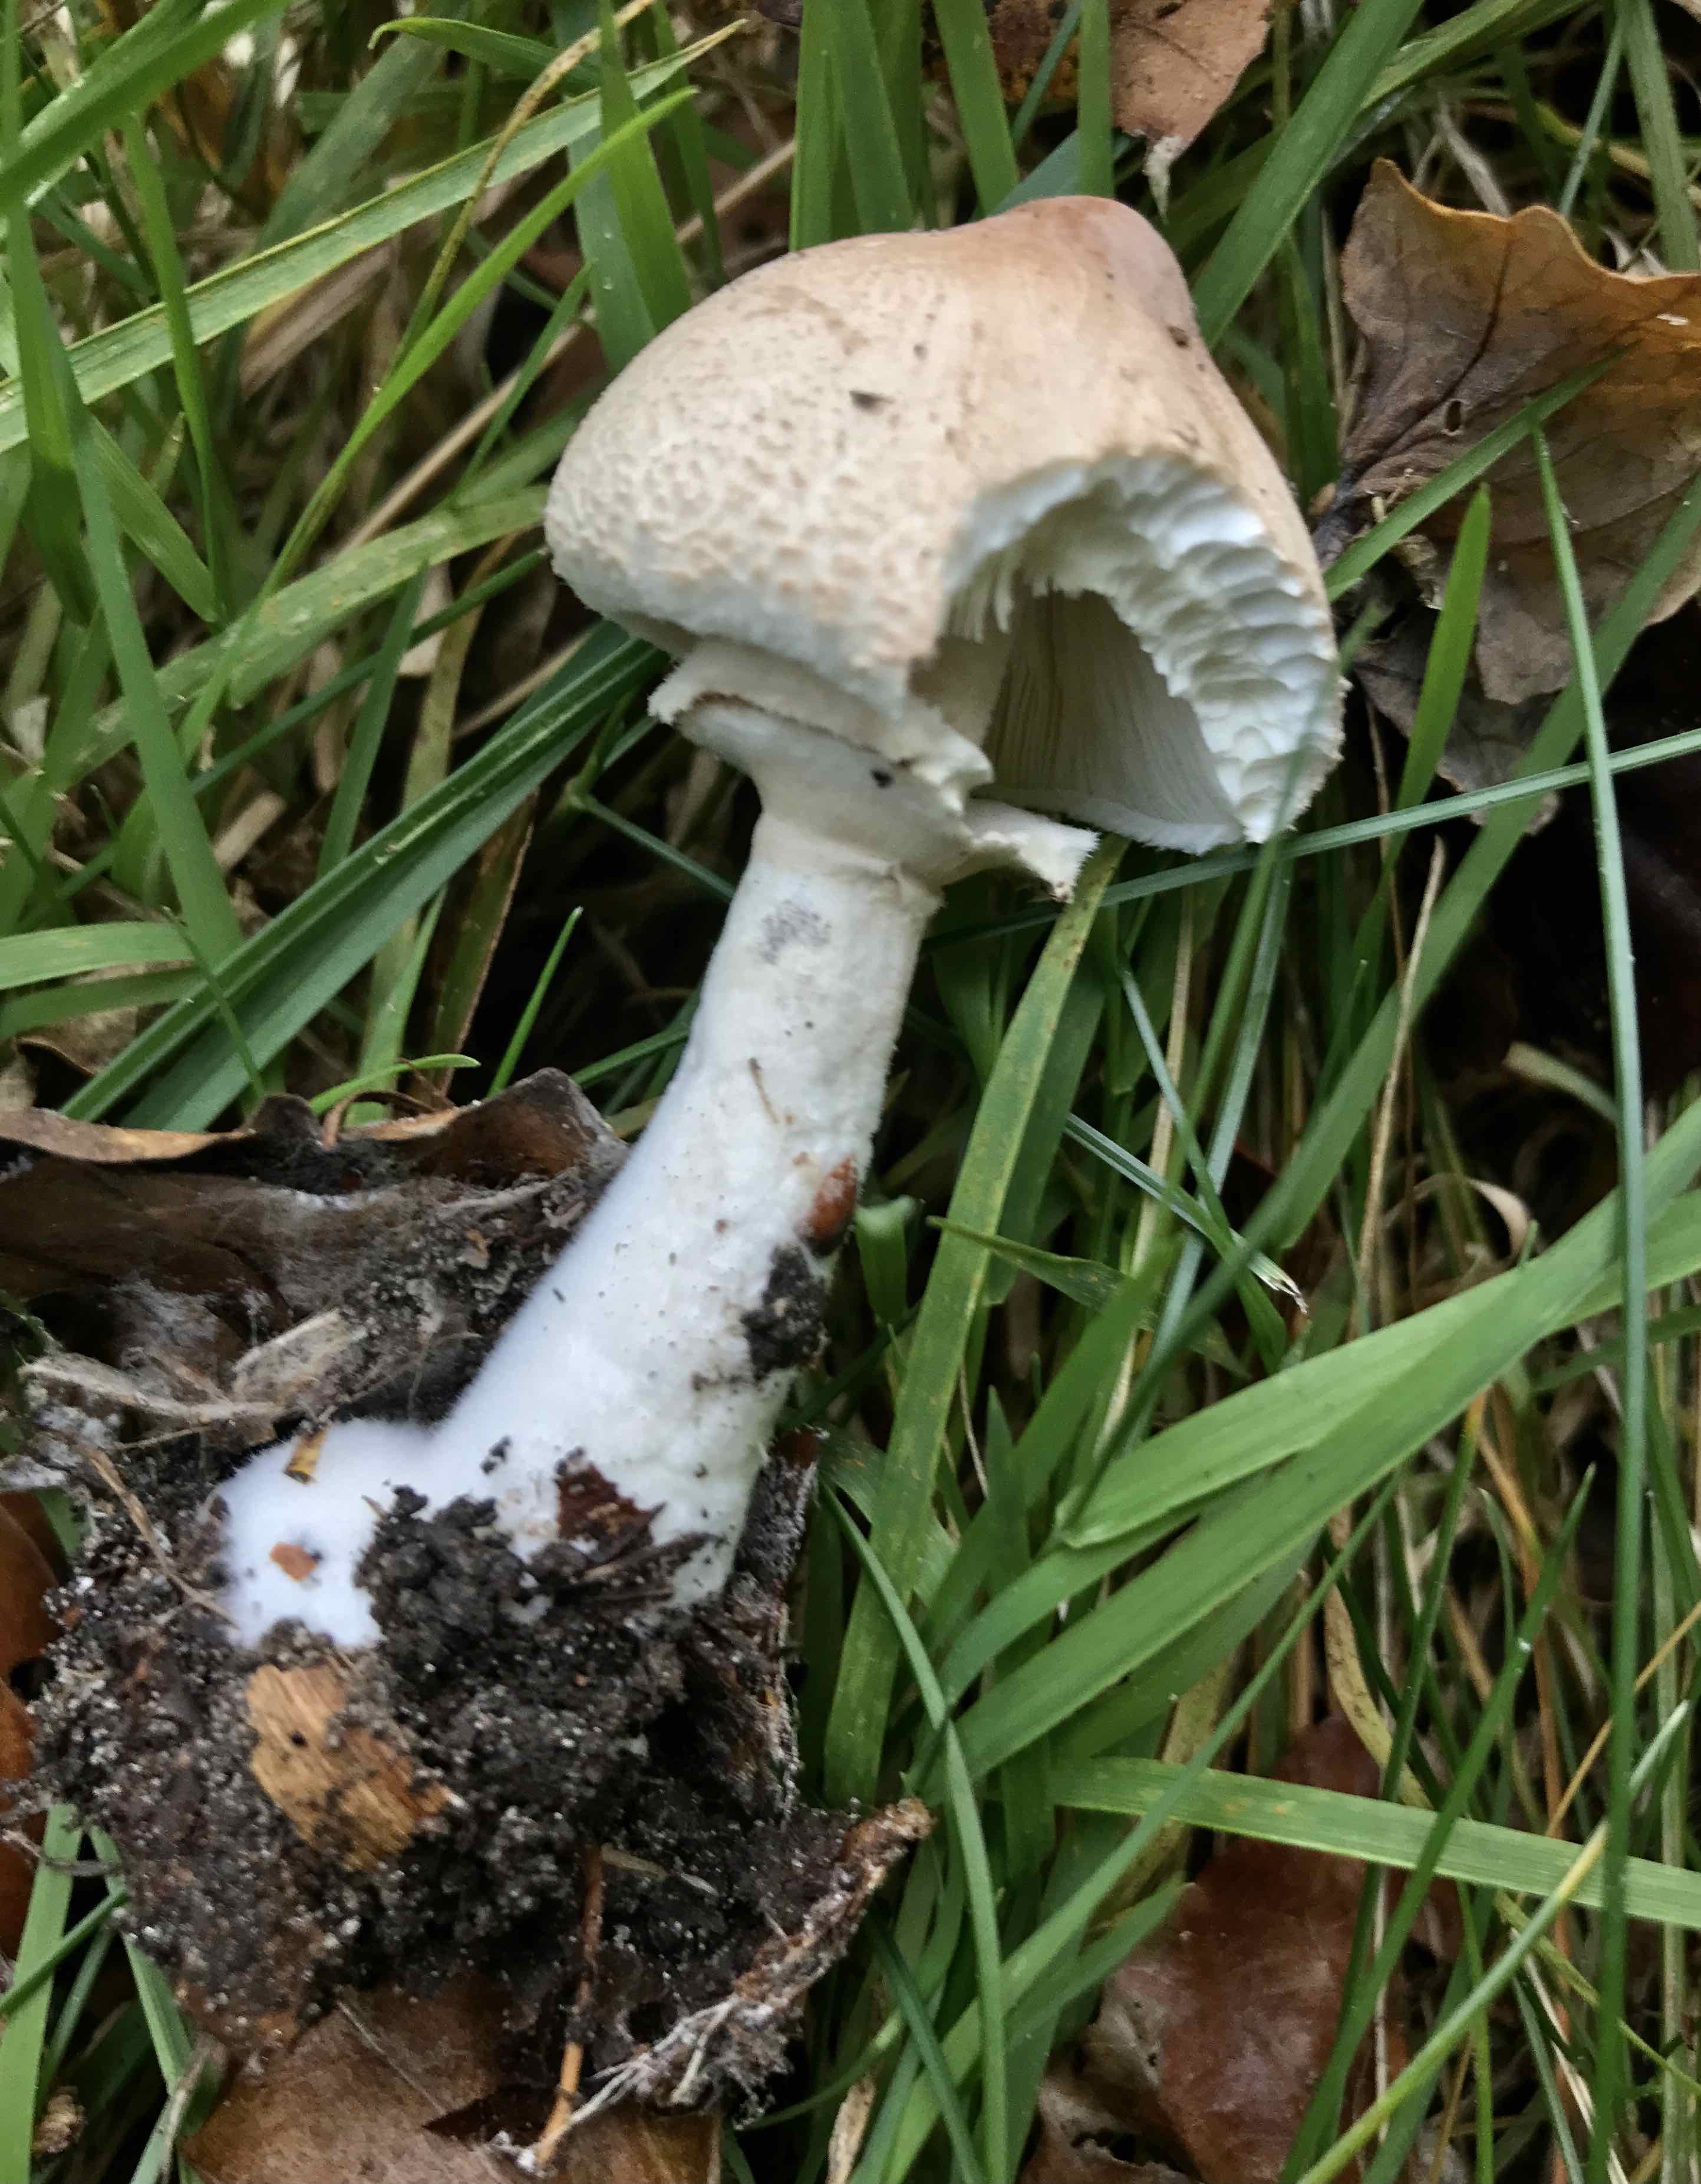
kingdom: Fungi
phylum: Basidiomycota
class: Agaricomycetes
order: Agaricales
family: Agaricaceae
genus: Macrolepiota
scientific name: Macrolepiota mastoidea
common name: puklet kæmpeparasolhat
